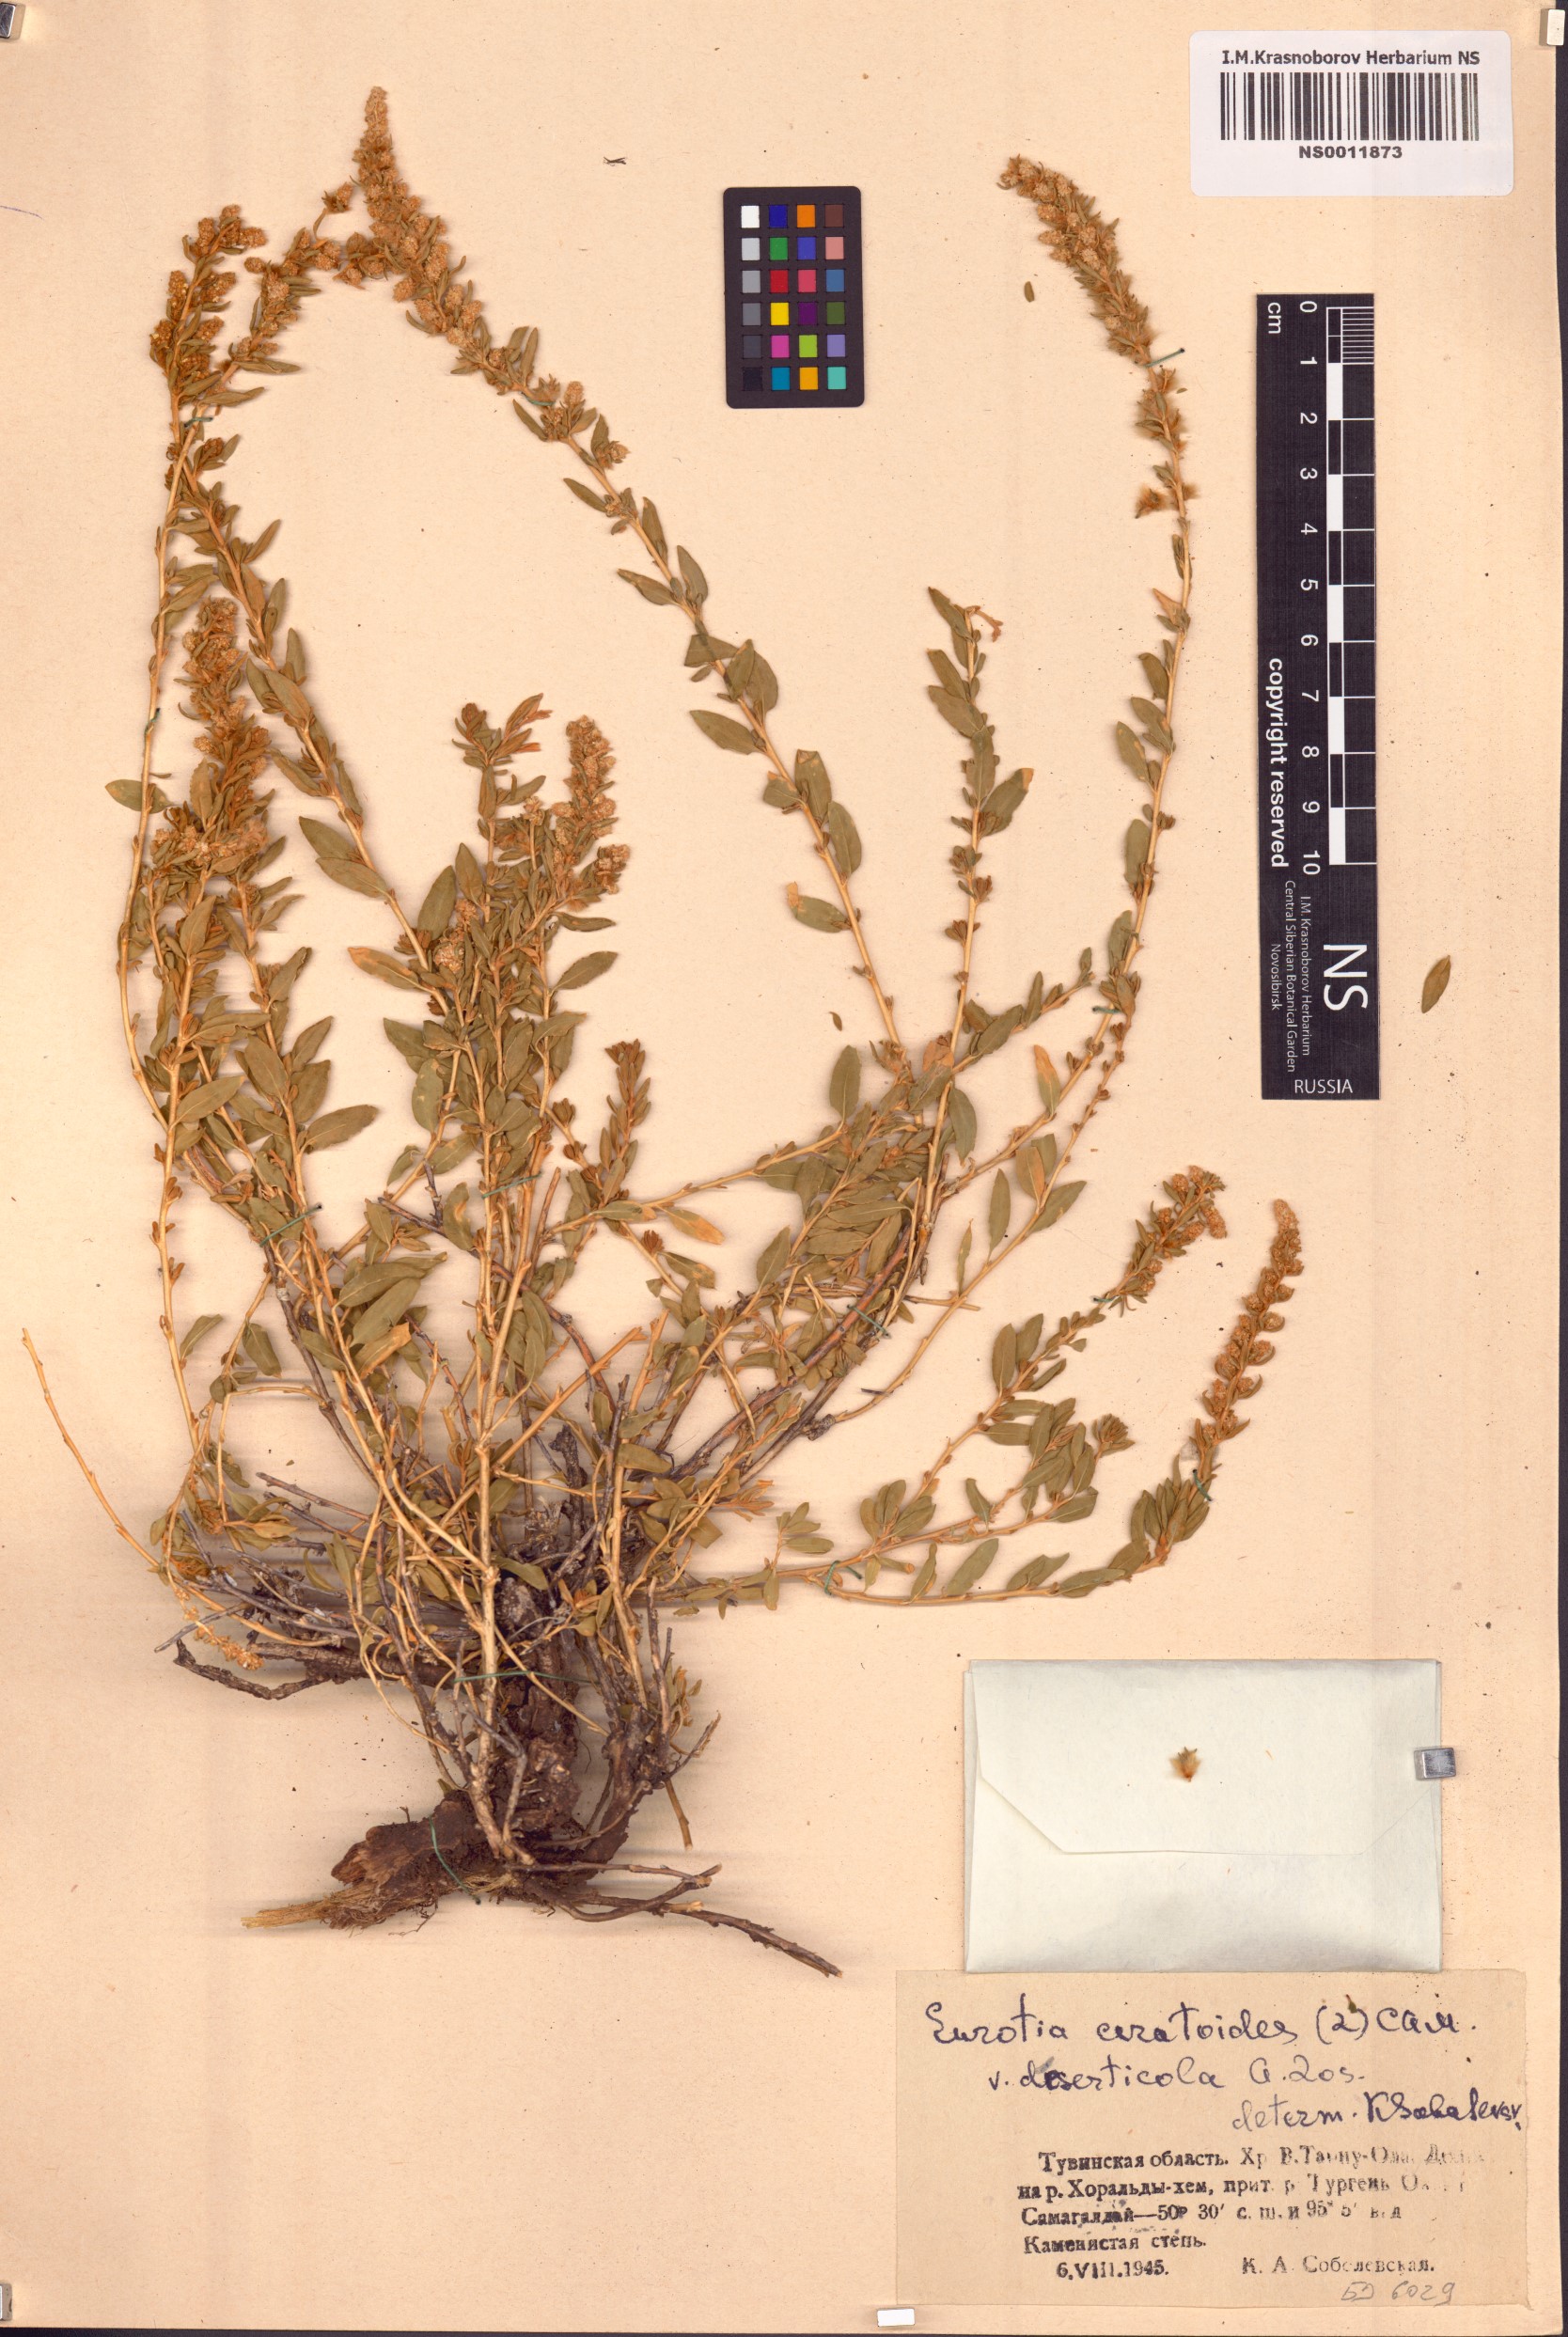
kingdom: Plantae
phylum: Tracheophyta
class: Magnoliopsida
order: Caryophyllales
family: Amaranthaceae
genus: Krascheninnikovia
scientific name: Krascheninnikovia ceratoides
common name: Pamirian winterfat
